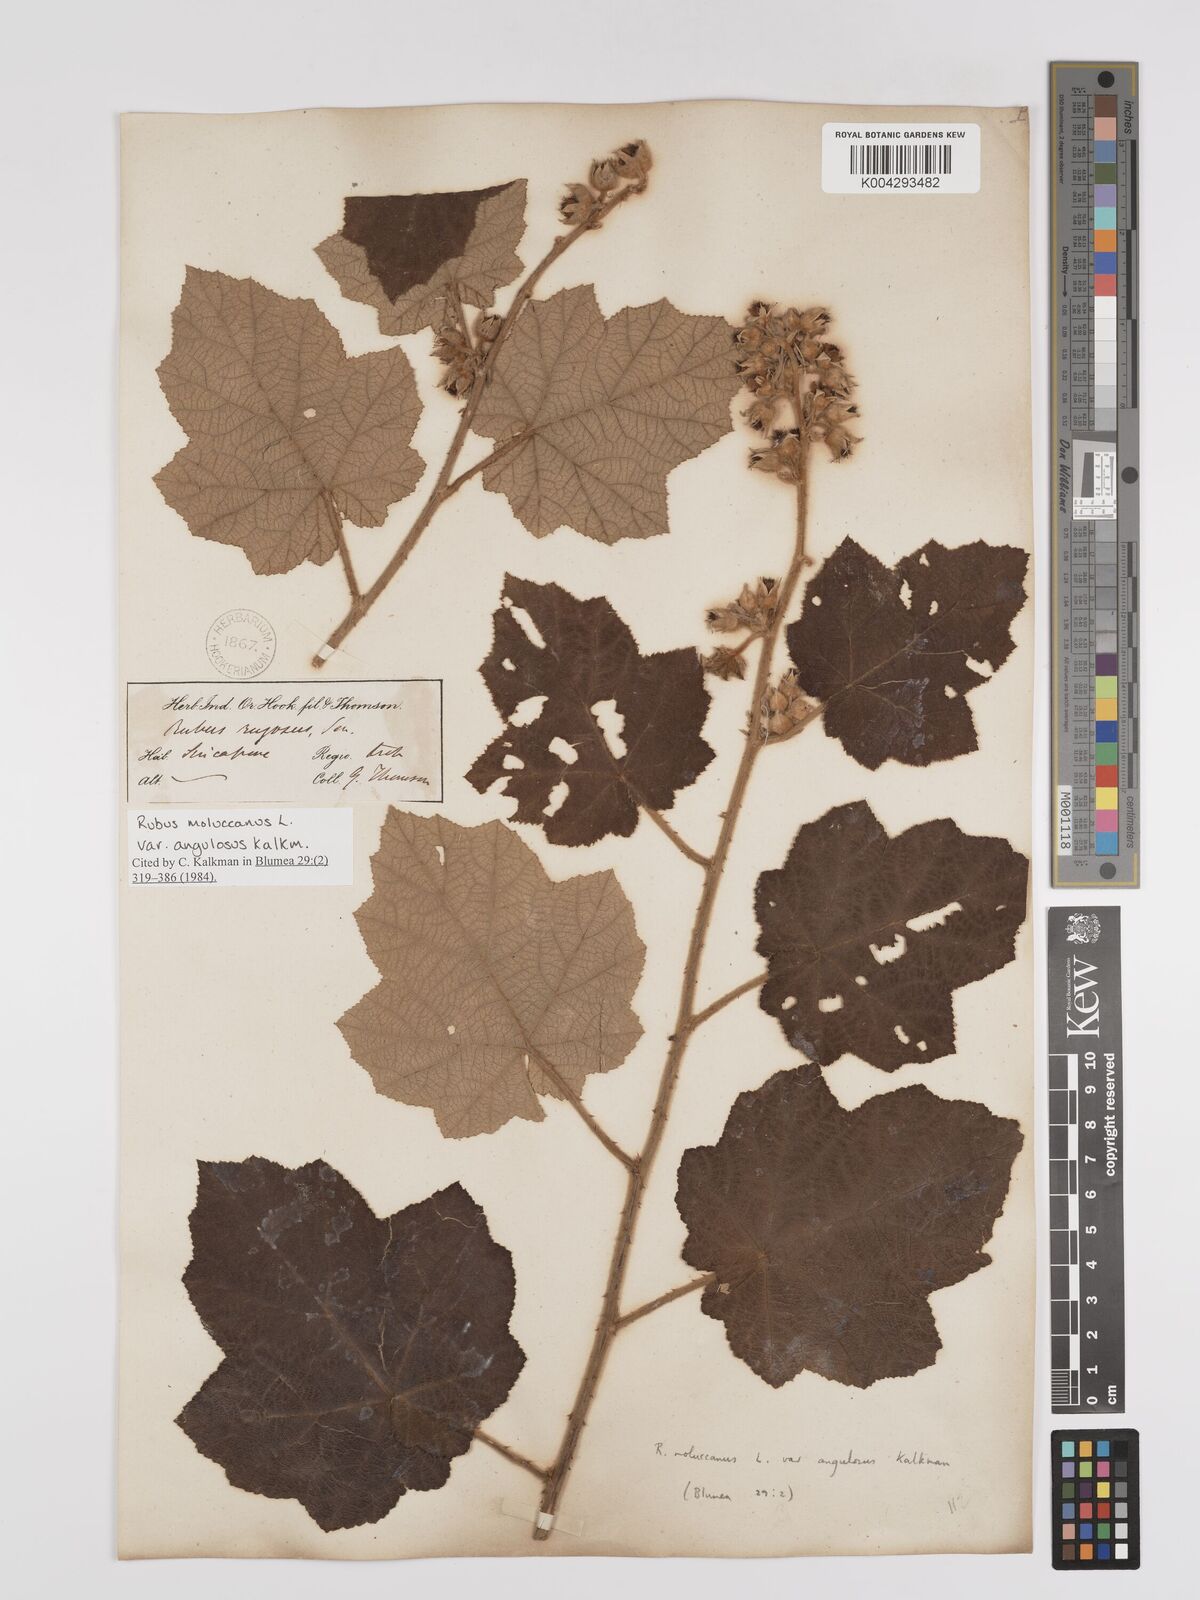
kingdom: Plantae
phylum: Tracheophyta
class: Magnoliopsida
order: Rosales
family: Rosaceae
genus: Rubus
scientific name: Rubus moluccanus
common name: Wild raspberry
